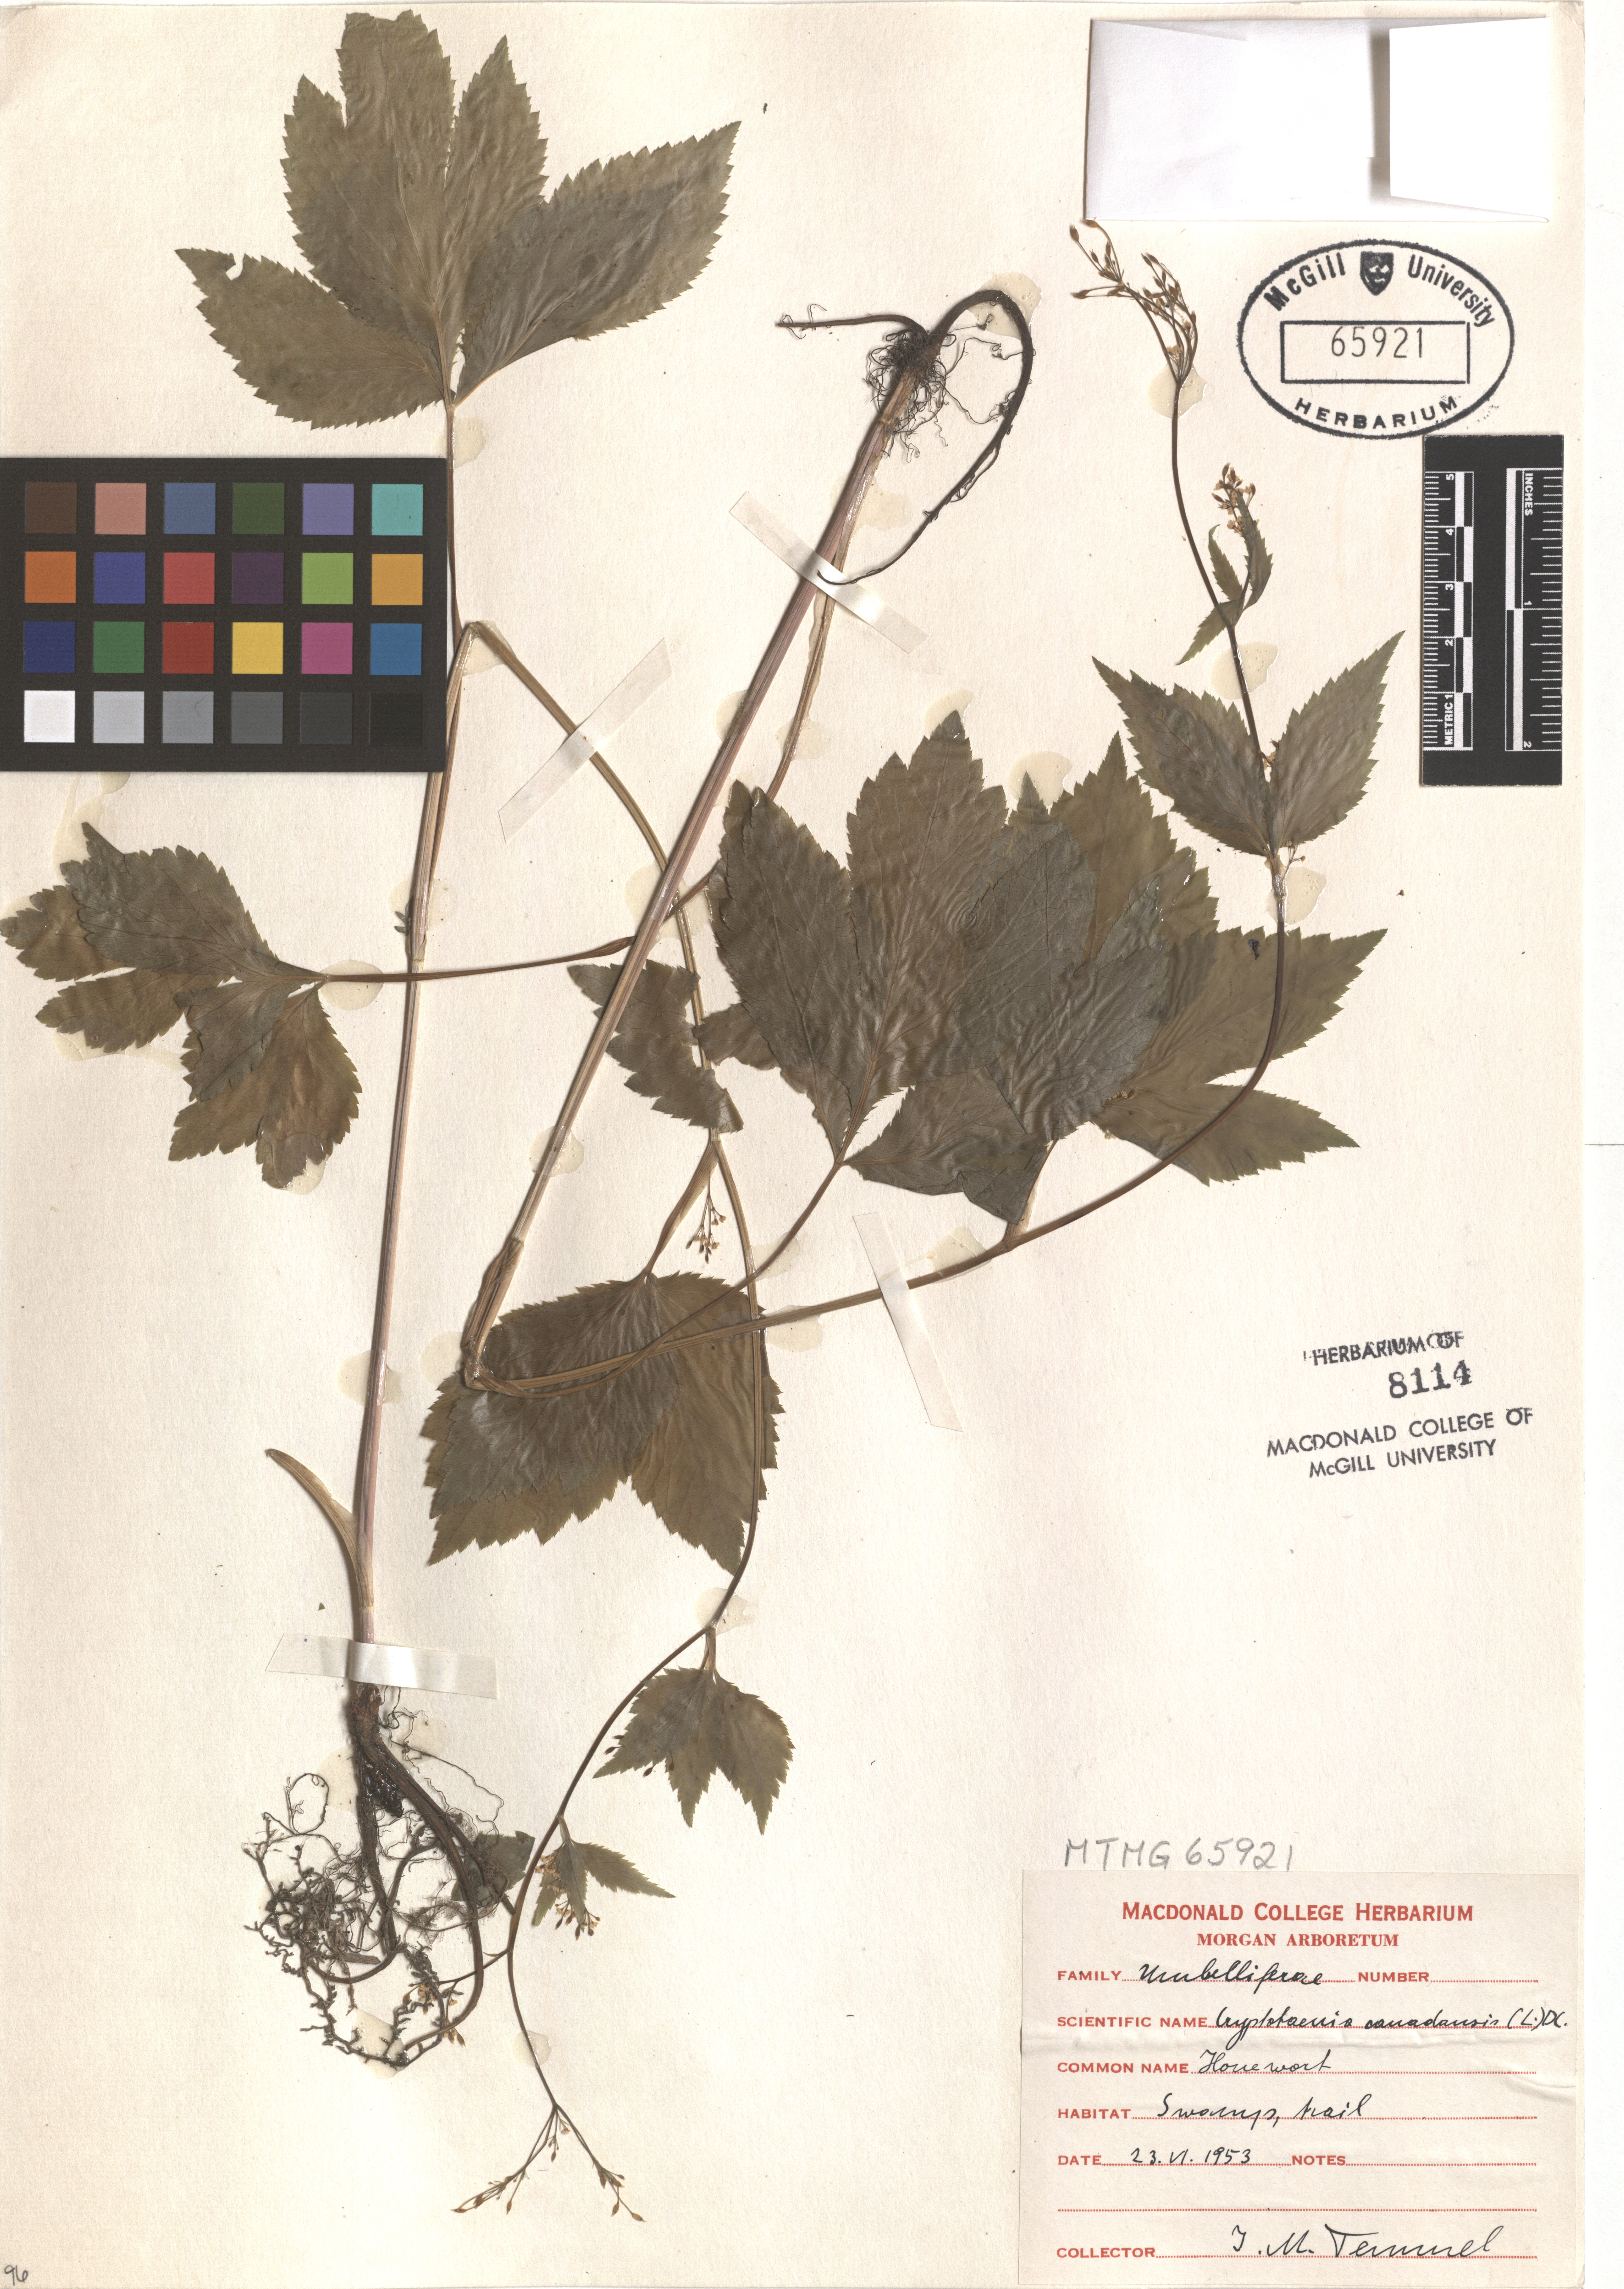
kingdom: Plantae
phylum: Tracheophyta
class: Magnoliopsida
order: Apiales
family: Apiaceae
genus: Cryptotaenia
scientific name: Cryptotaenia canadensis
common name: Honewort
